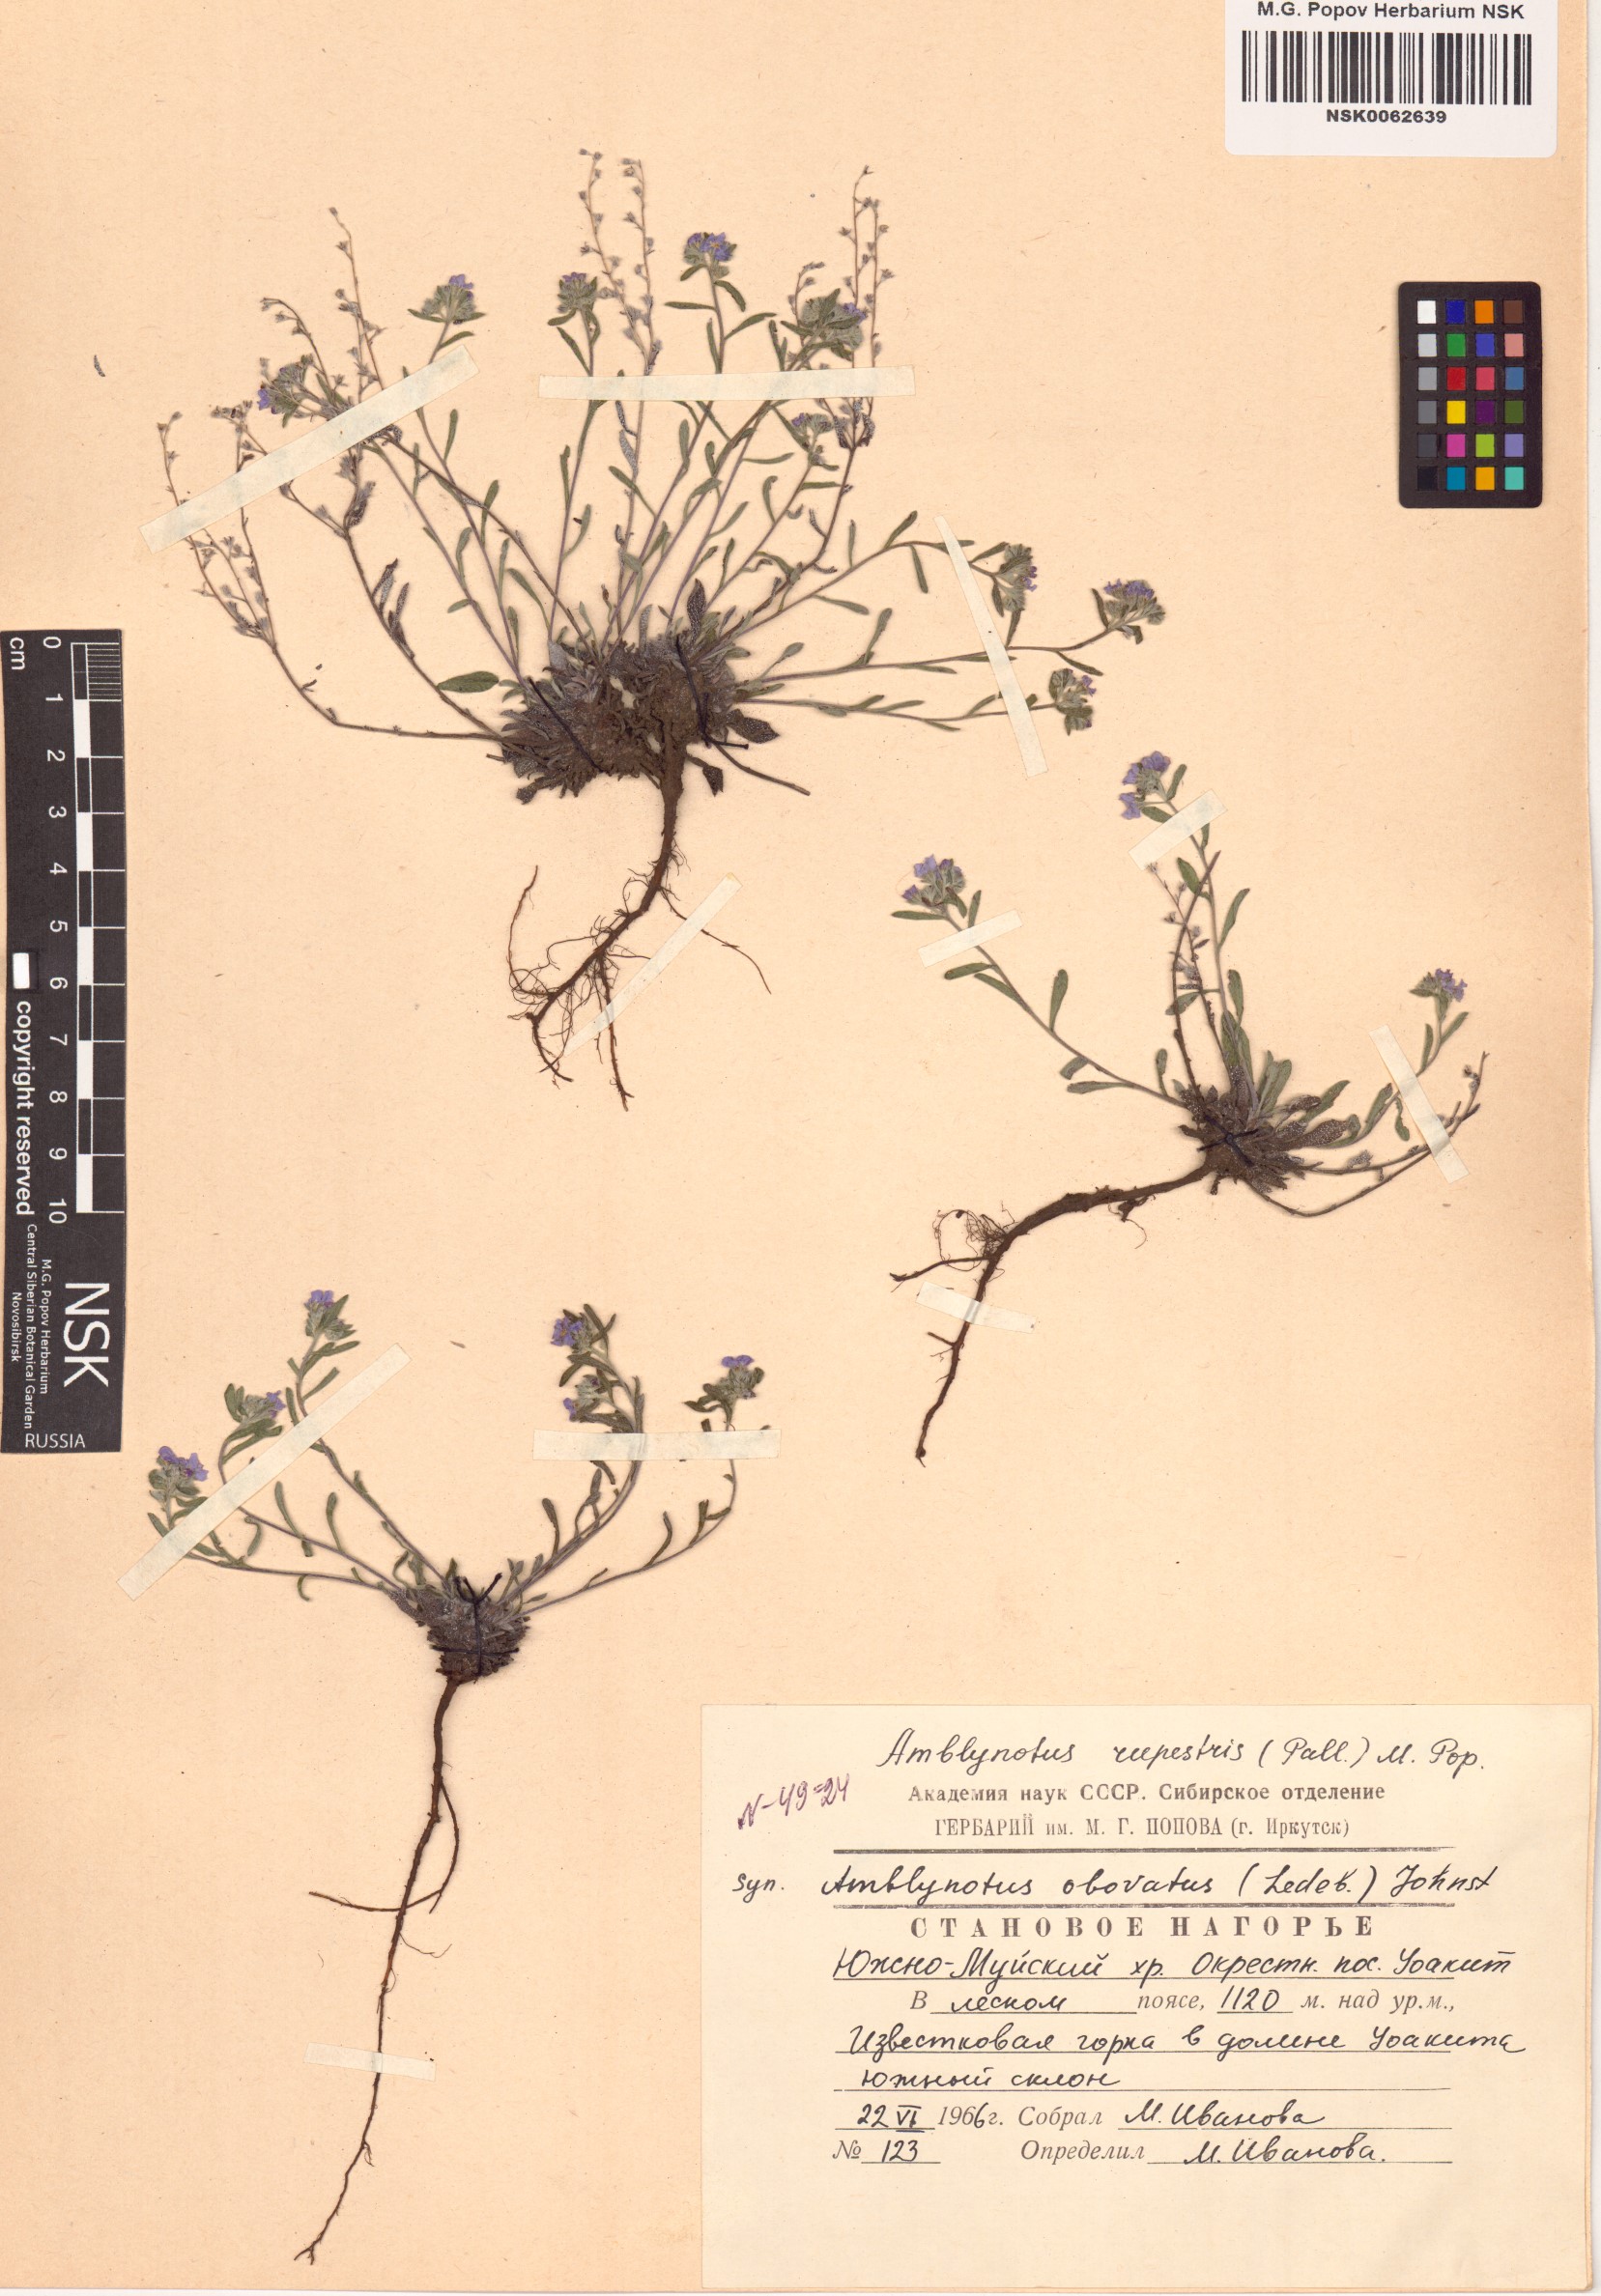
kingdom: Plantae
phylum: Tracheophyta
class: Magnoliopsida
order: Boraginales
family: Boraginaceae
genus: Eritrichium
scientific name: Eritrichium rupestre
